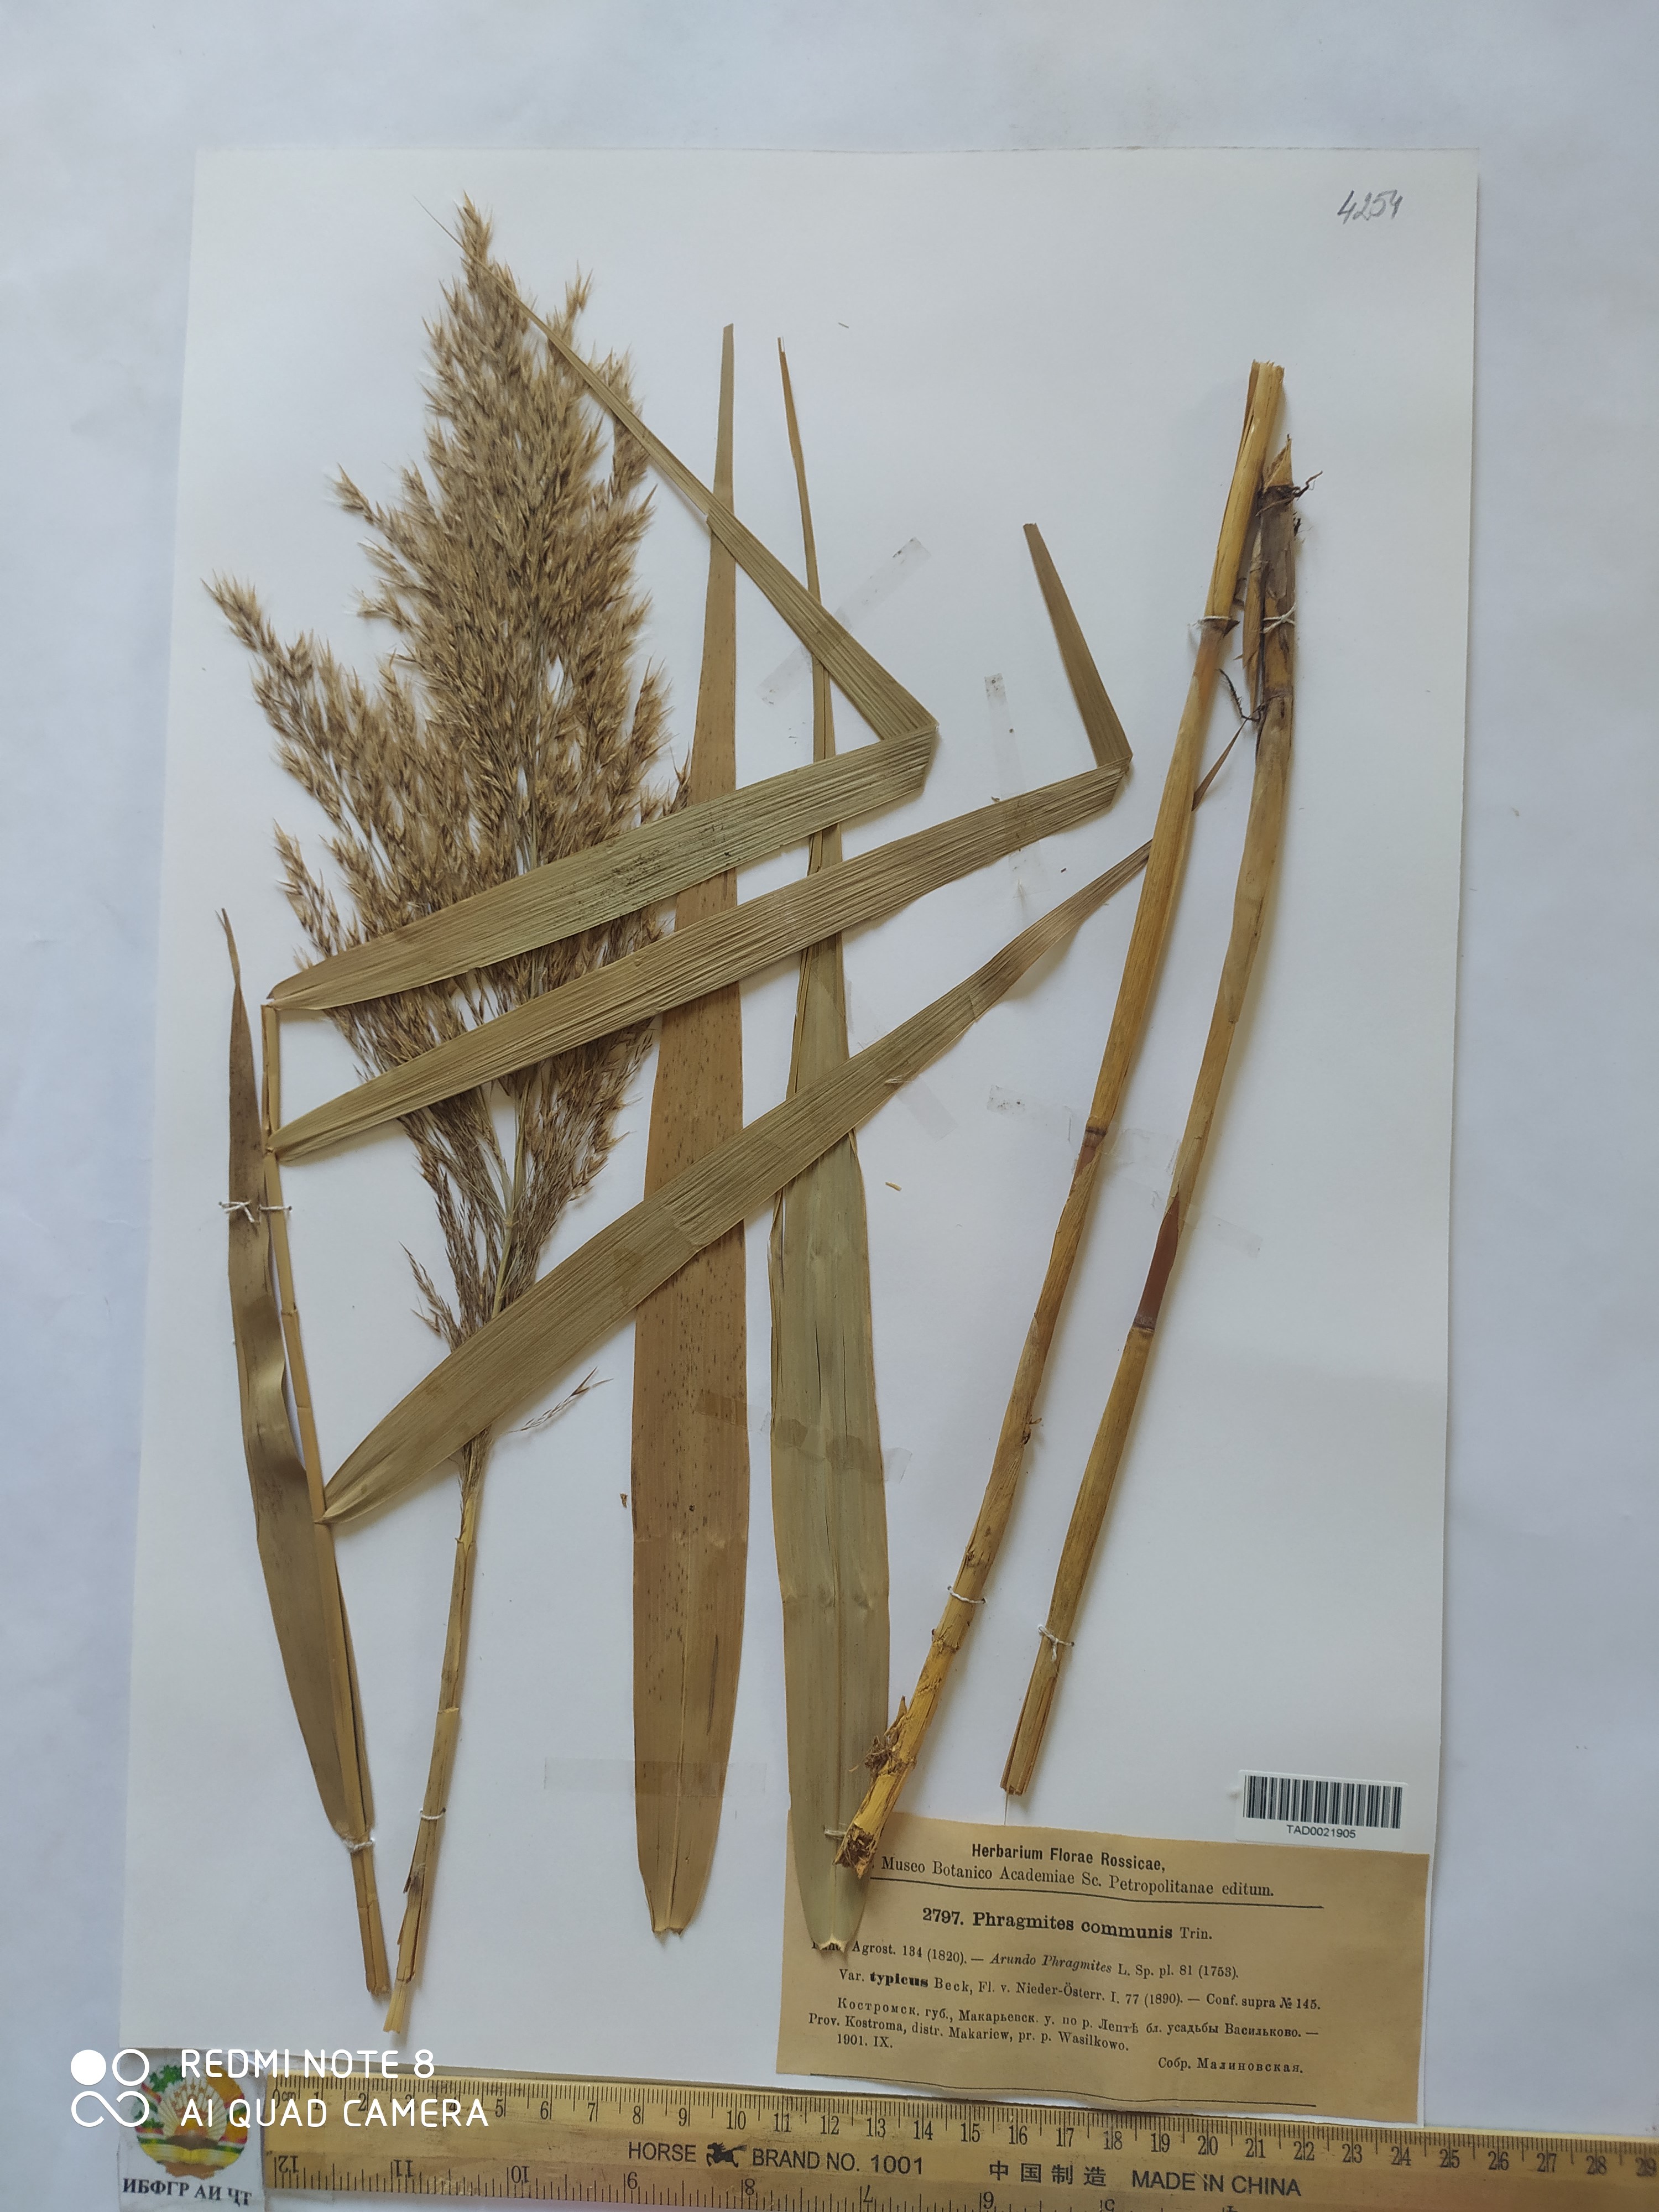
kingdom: Plantae
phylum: Tracheophyta
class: Liliopsida
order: Poales
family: Poaceae
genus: Phragmites
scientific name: Phragmites australis
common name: Common reed
